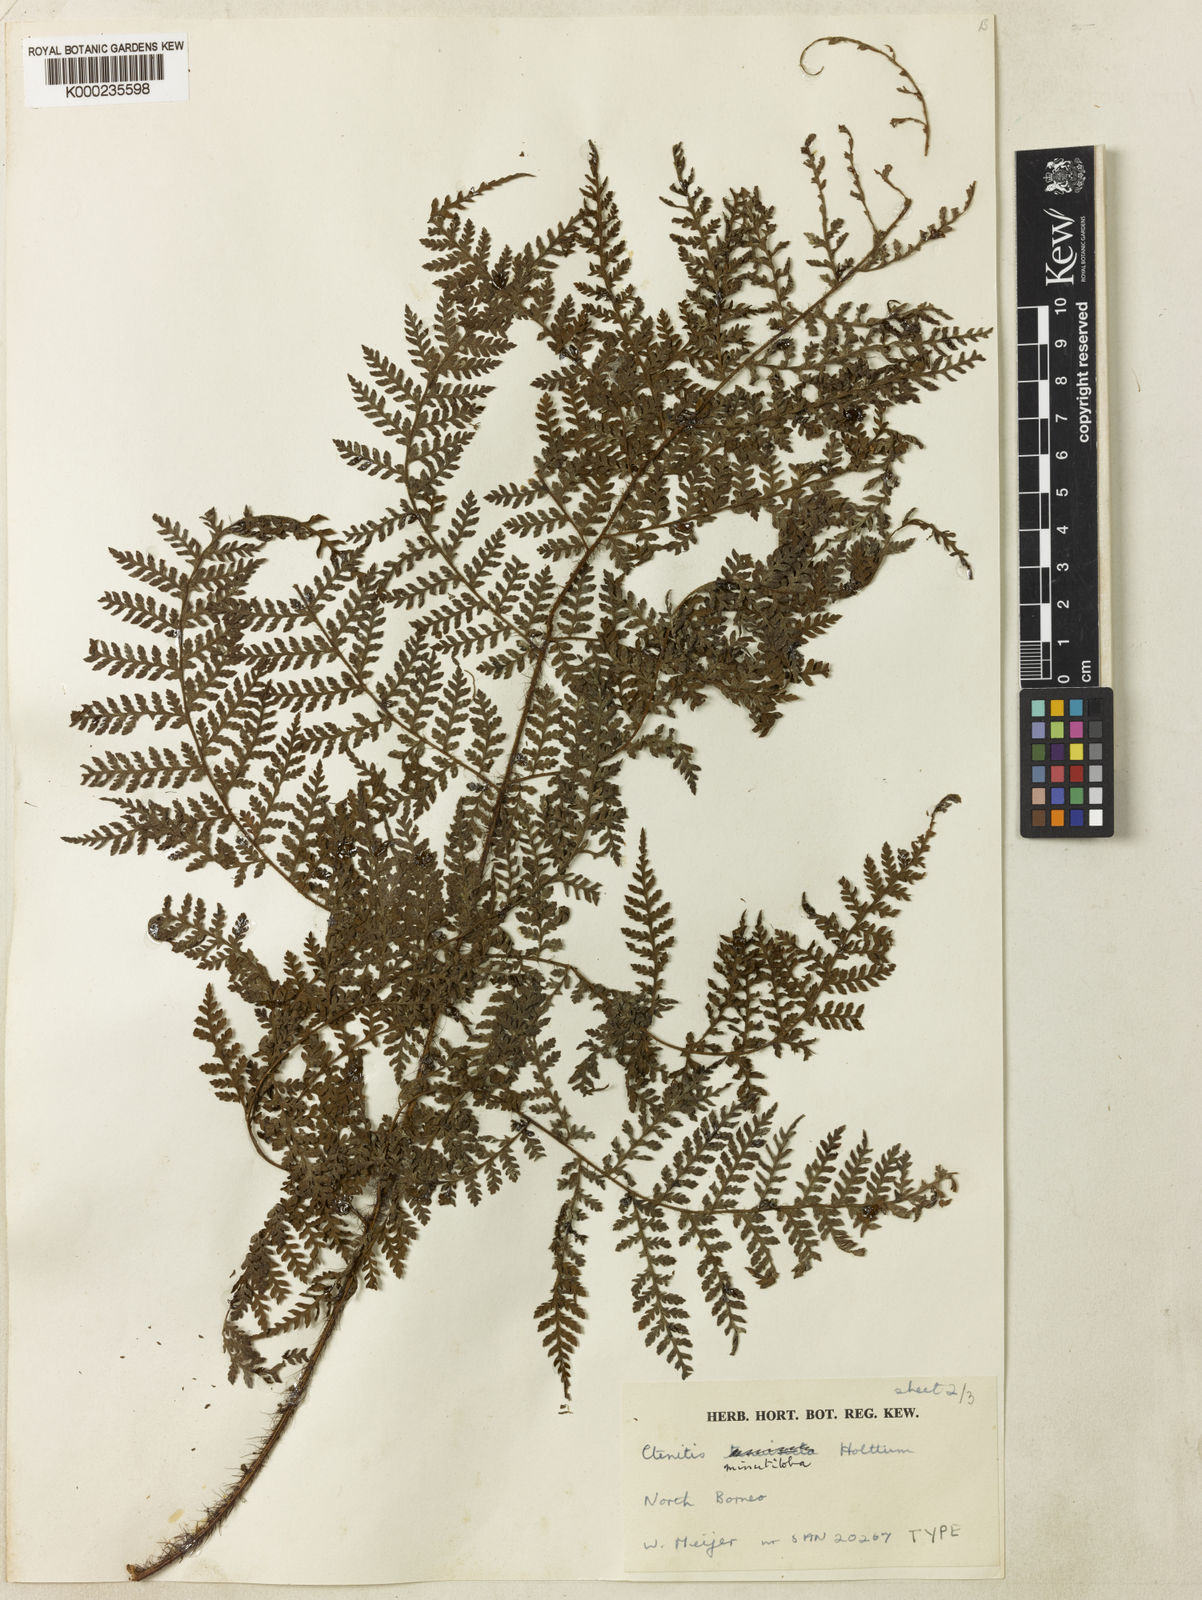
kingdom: Plantae
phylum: Tracheophyta
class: Polypodiopsida
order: Polypodiales
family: Dryopteridaceae
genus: Ctenitis
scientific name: Ctenitis minutiloba
